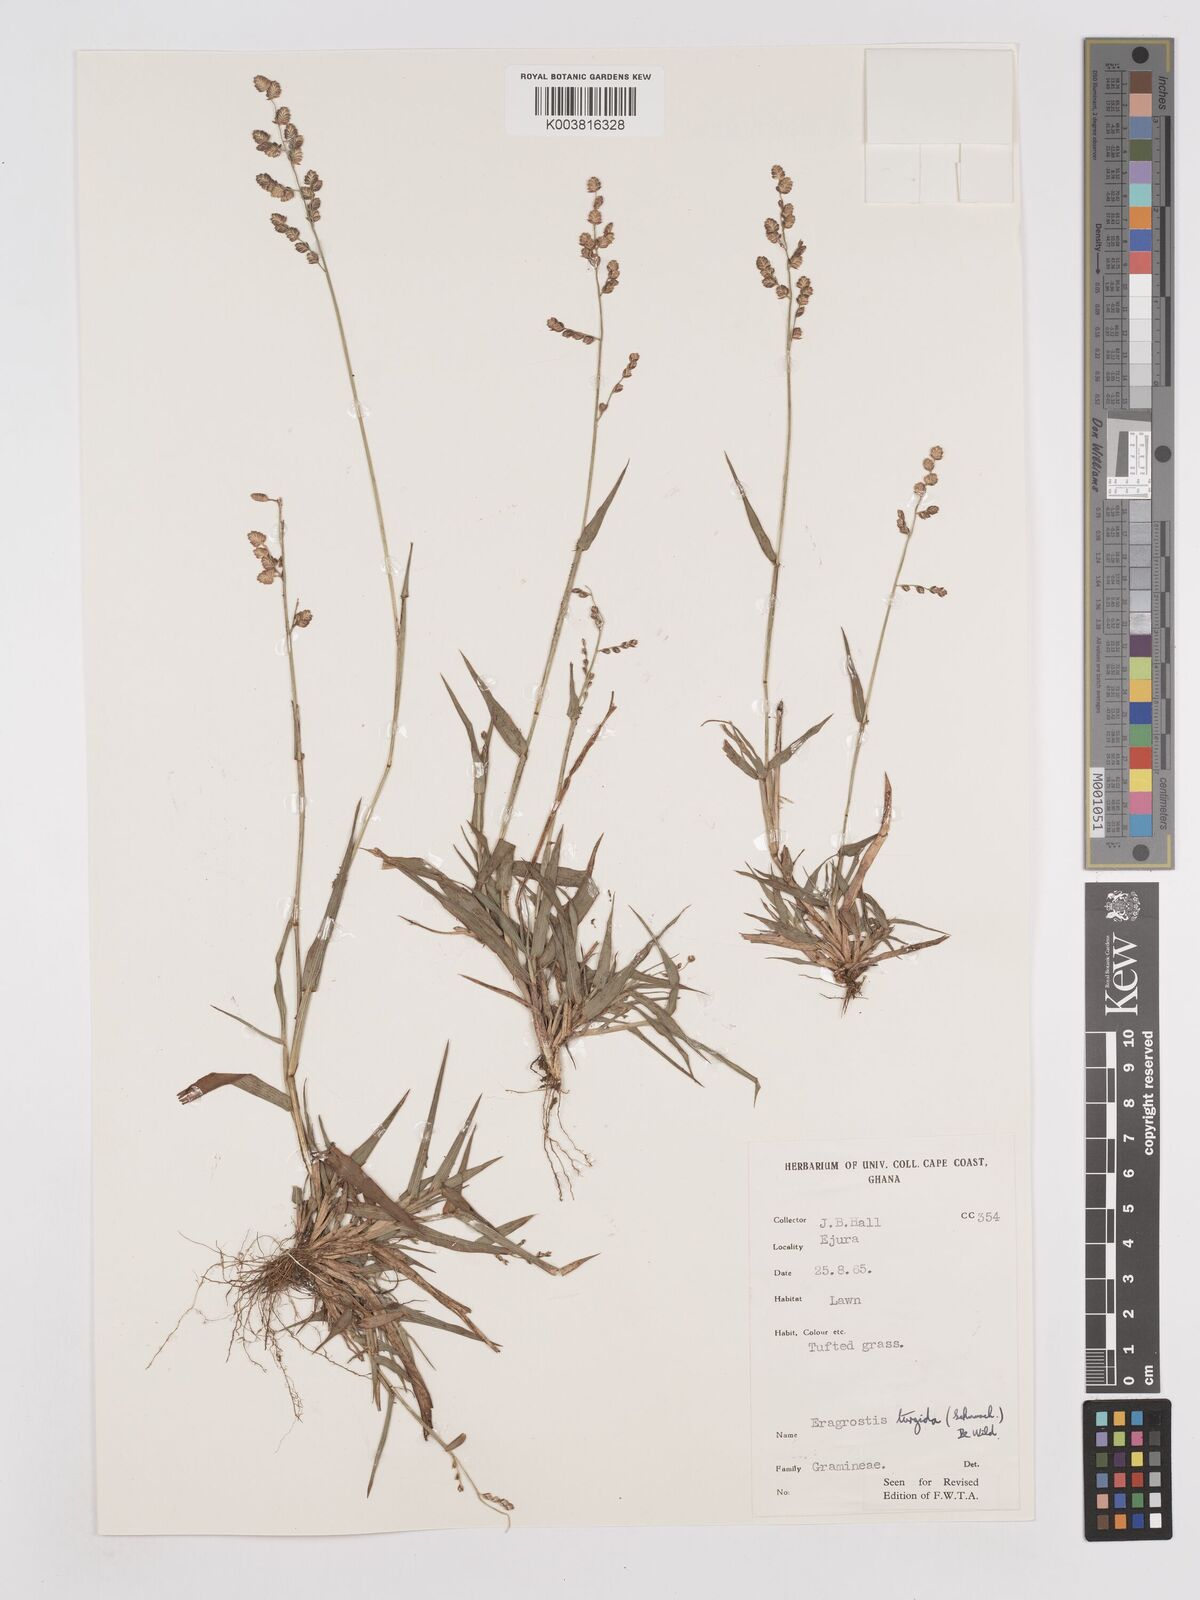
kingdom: Plantae
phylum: Tracheophyta
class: Liliopsida
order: Poales
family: Poaceae
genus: Eragrostis
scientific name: Eragrostis turgida
